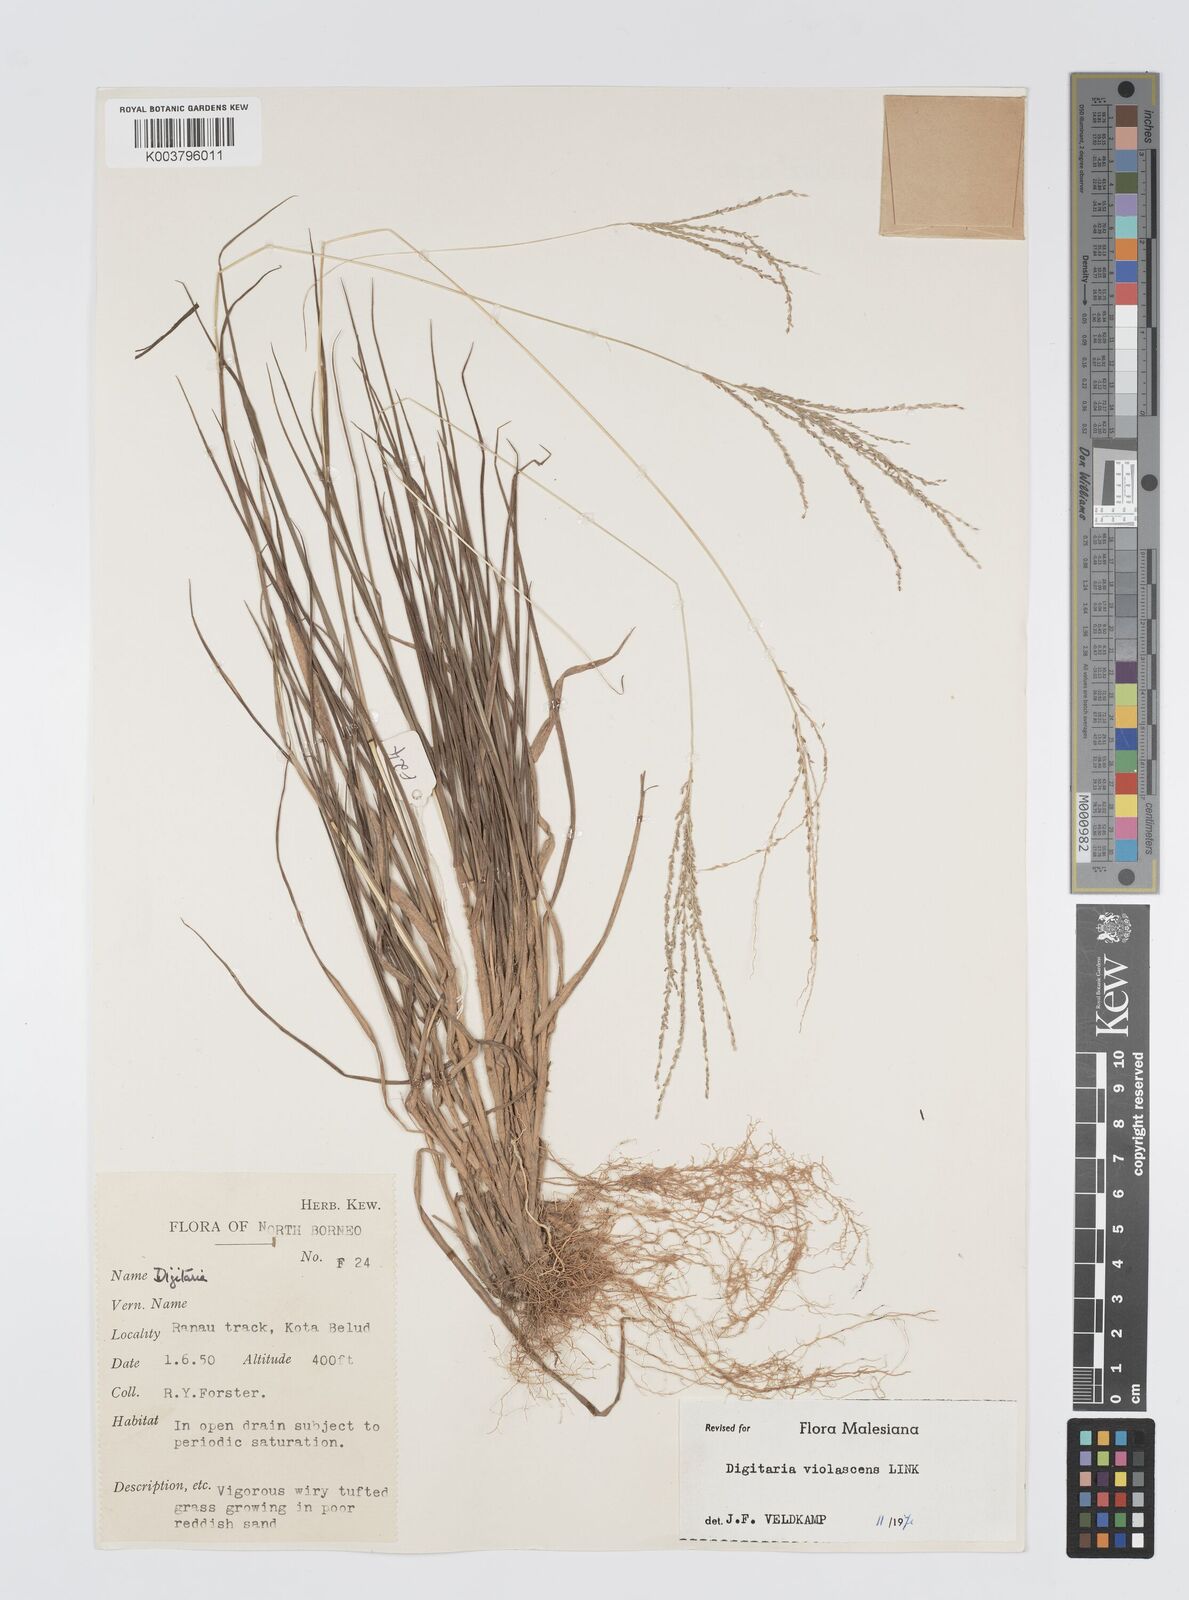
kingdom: Plantae
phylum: Tracheophyta
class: Liliopsida
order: Poales
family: Poaceae
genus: Digitaria
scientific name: Digitaria violascens
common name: Violet crabgrass
